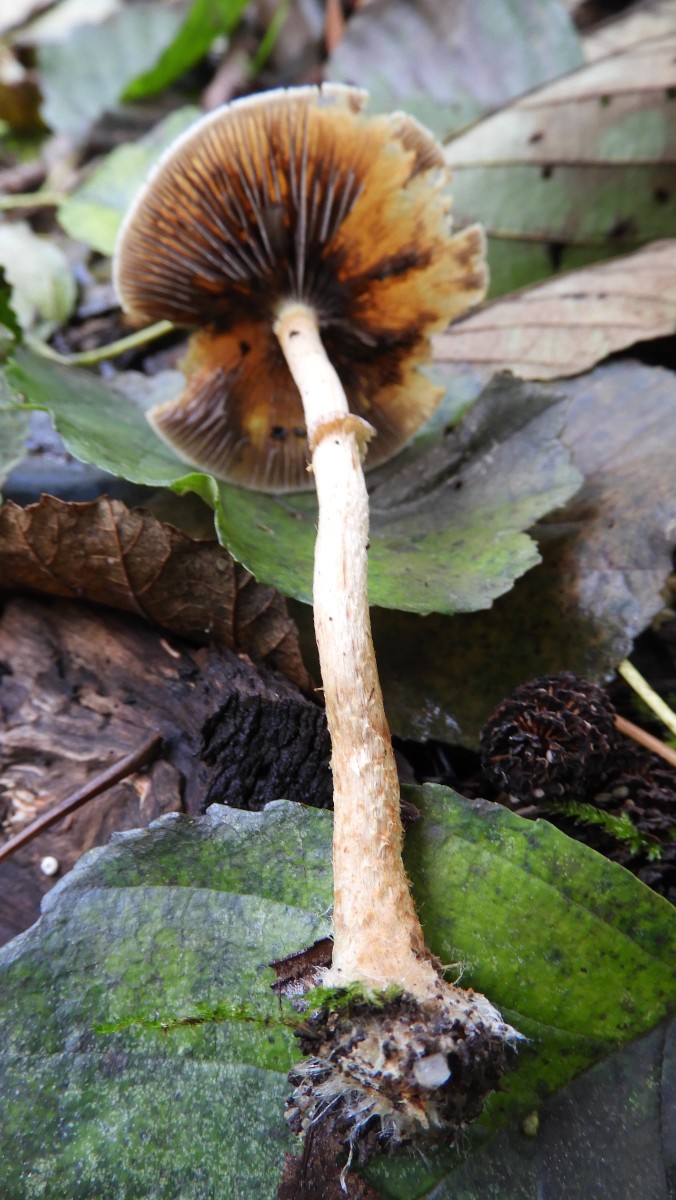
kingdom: Fungi
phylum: Basidiomycota
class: Agaricomycetes
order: Agaricales
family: Strophariaceae
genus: Hypholoma
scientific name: Hypholoma marginatum
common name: enlig svovlhat
